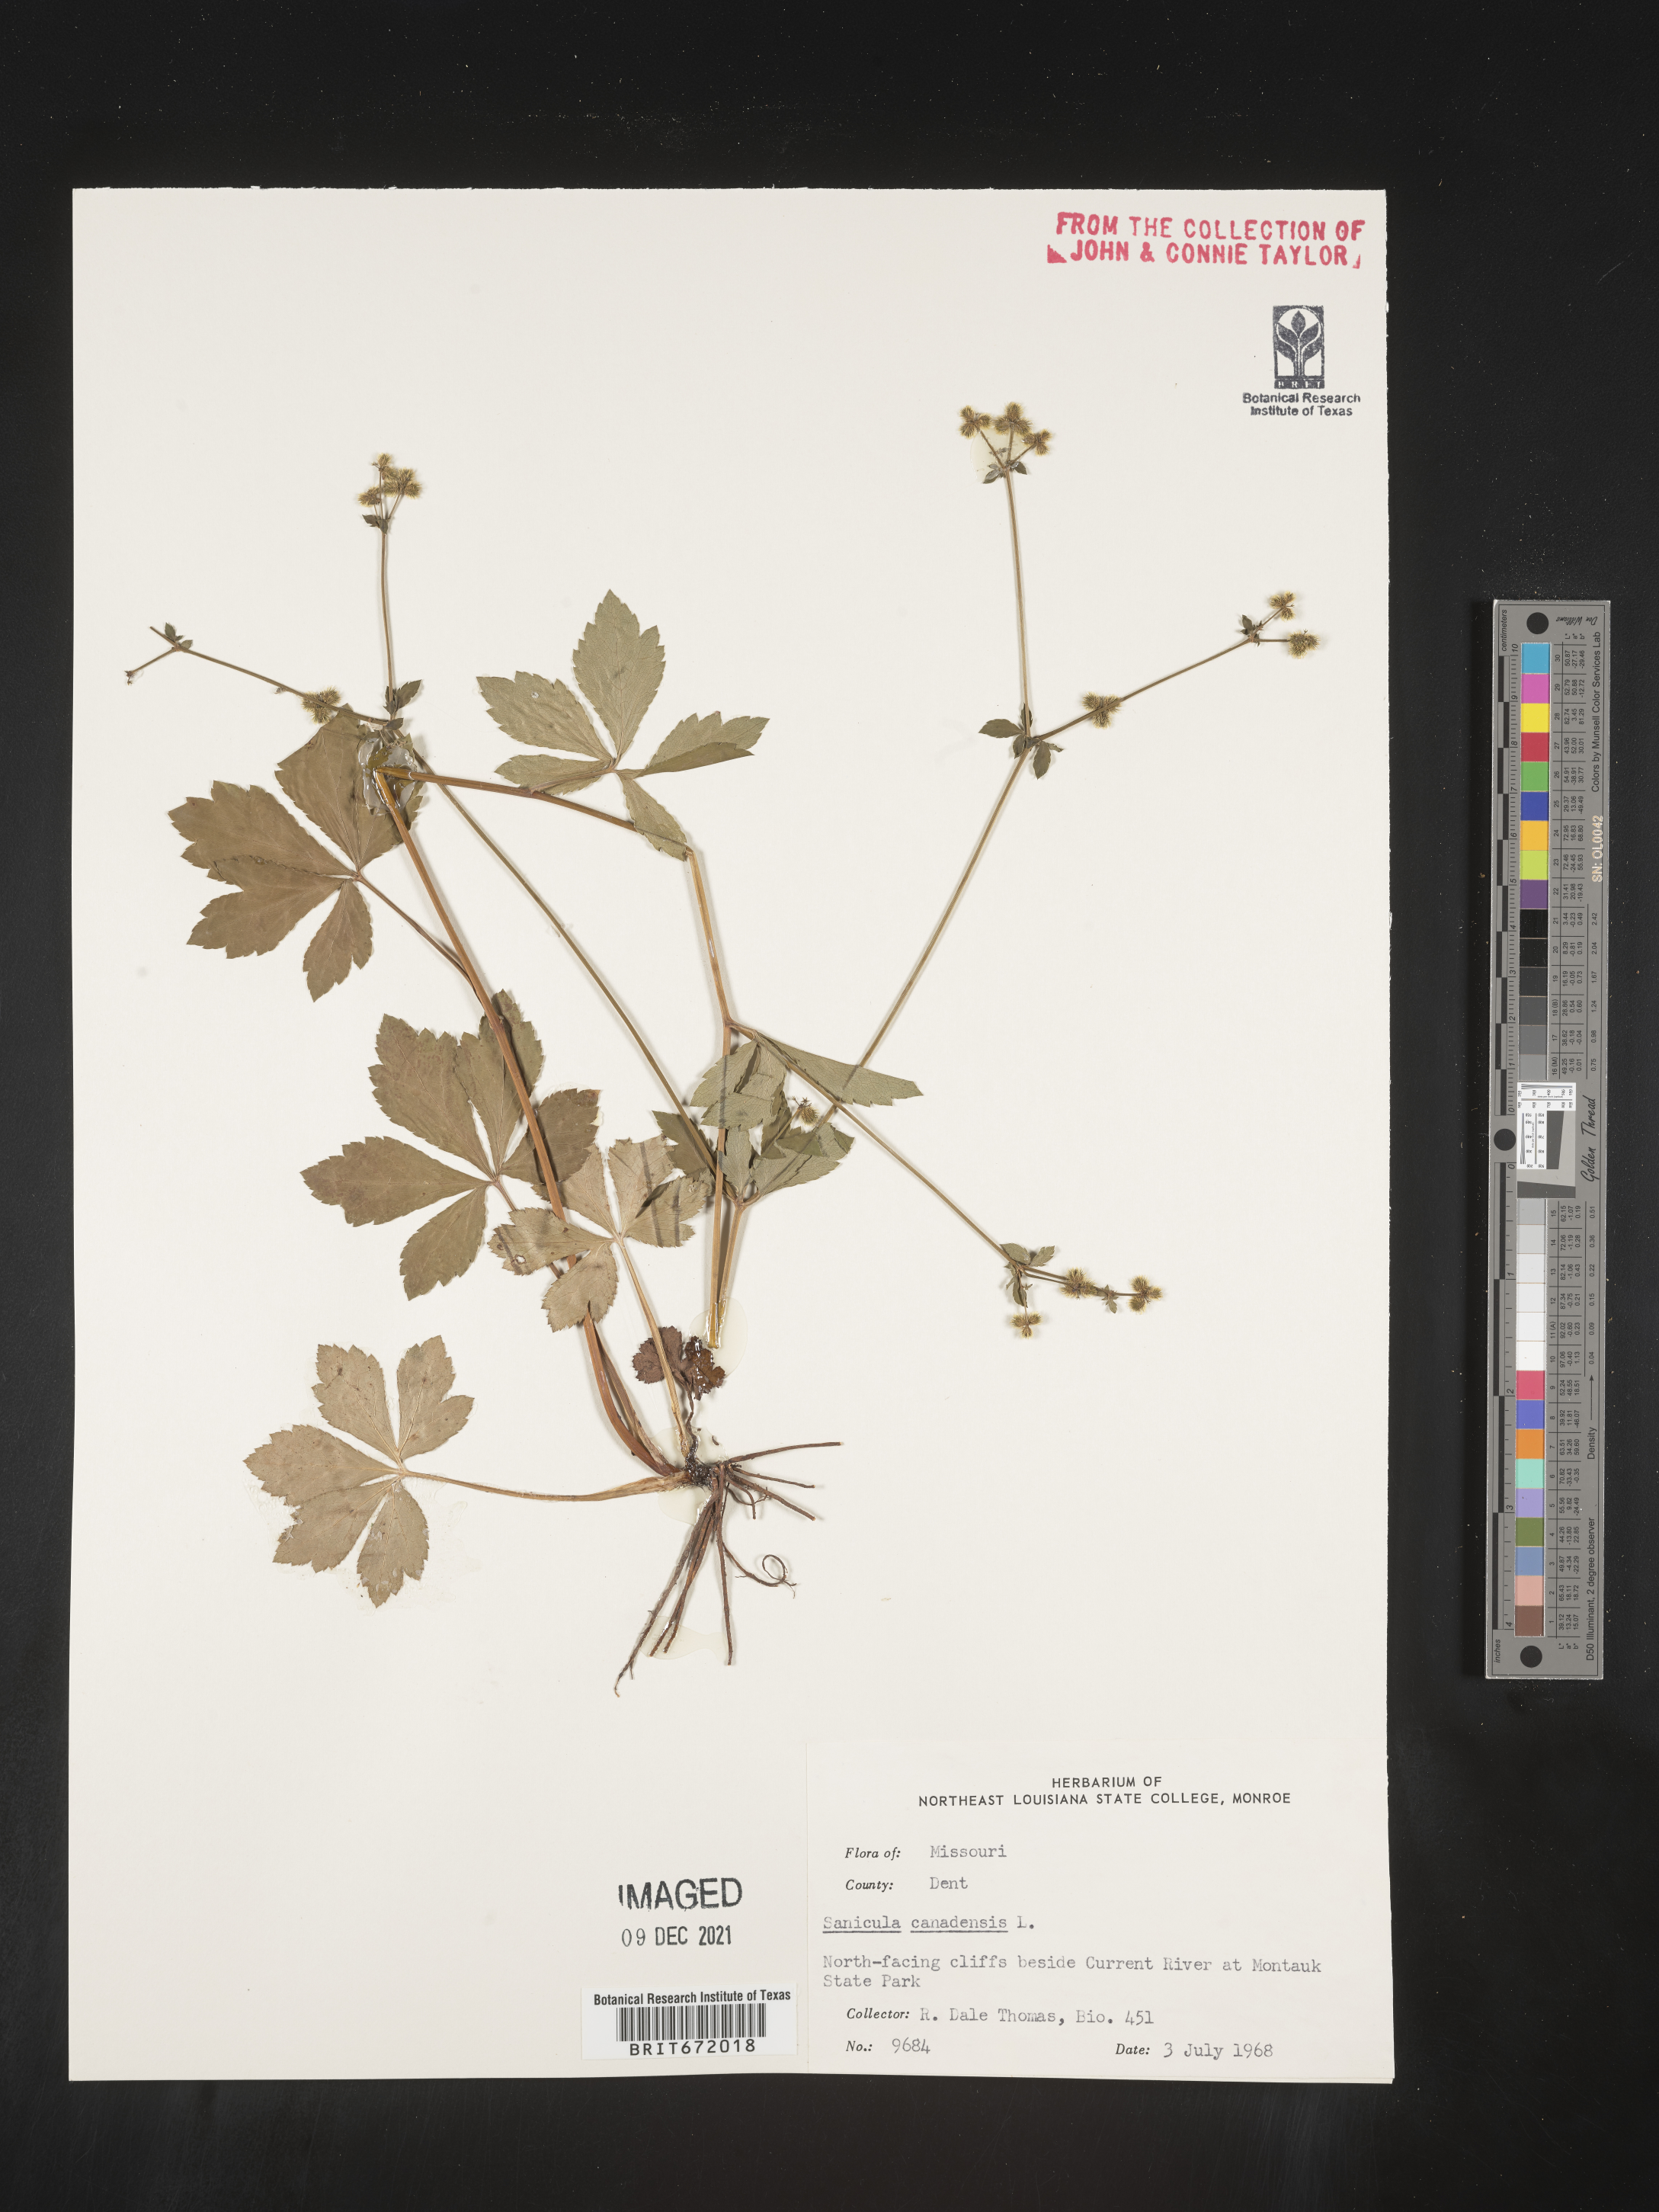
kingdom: Plantae
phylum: Tracheophyta
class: Magnoliopsida
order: Apiales
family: Apiaceae
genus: Sanicula
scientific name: Sanicula canadensis
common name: Canada sanicle
